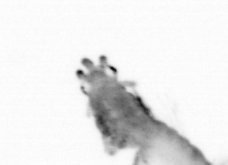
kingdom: Animalia
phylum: Annelida
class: Polychaeta
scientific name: Polychaeta
